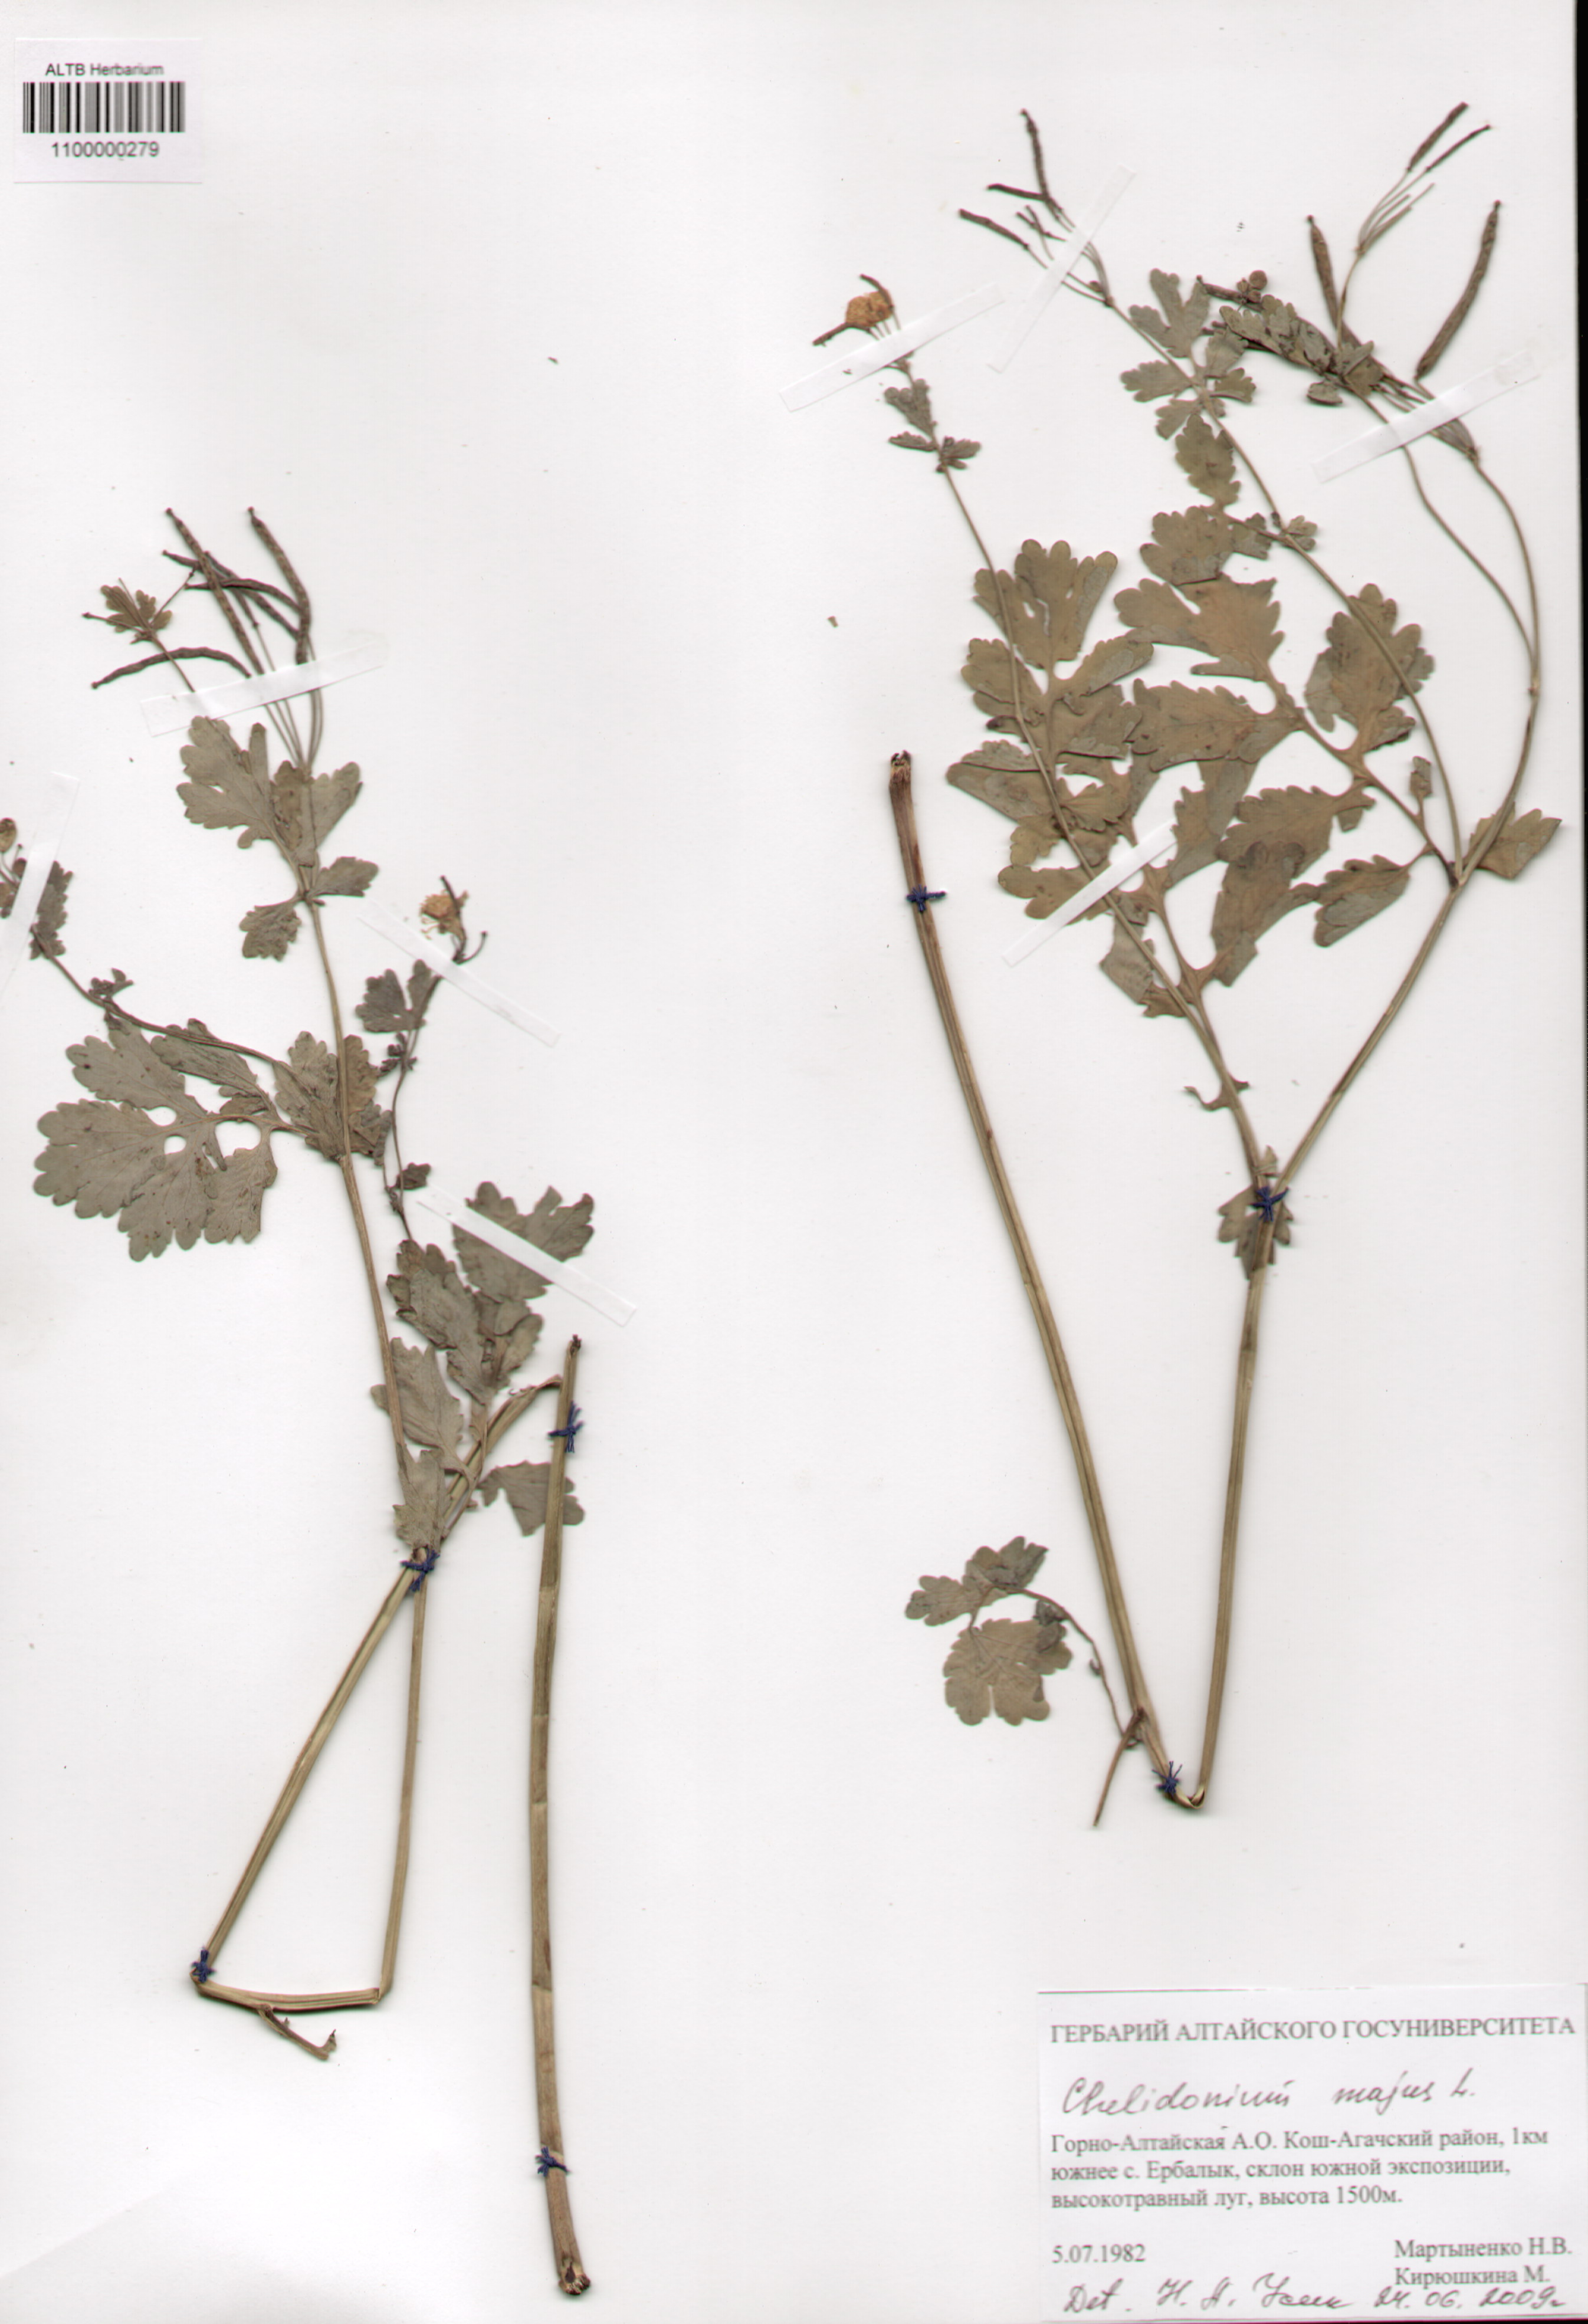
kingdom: Plantae
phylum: Tracheophyta
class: Magnoliopsida
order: Ranunculales
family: Papaveraceae
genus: Chelidonium
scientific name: Chelidonium majus
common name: Greater celandine
